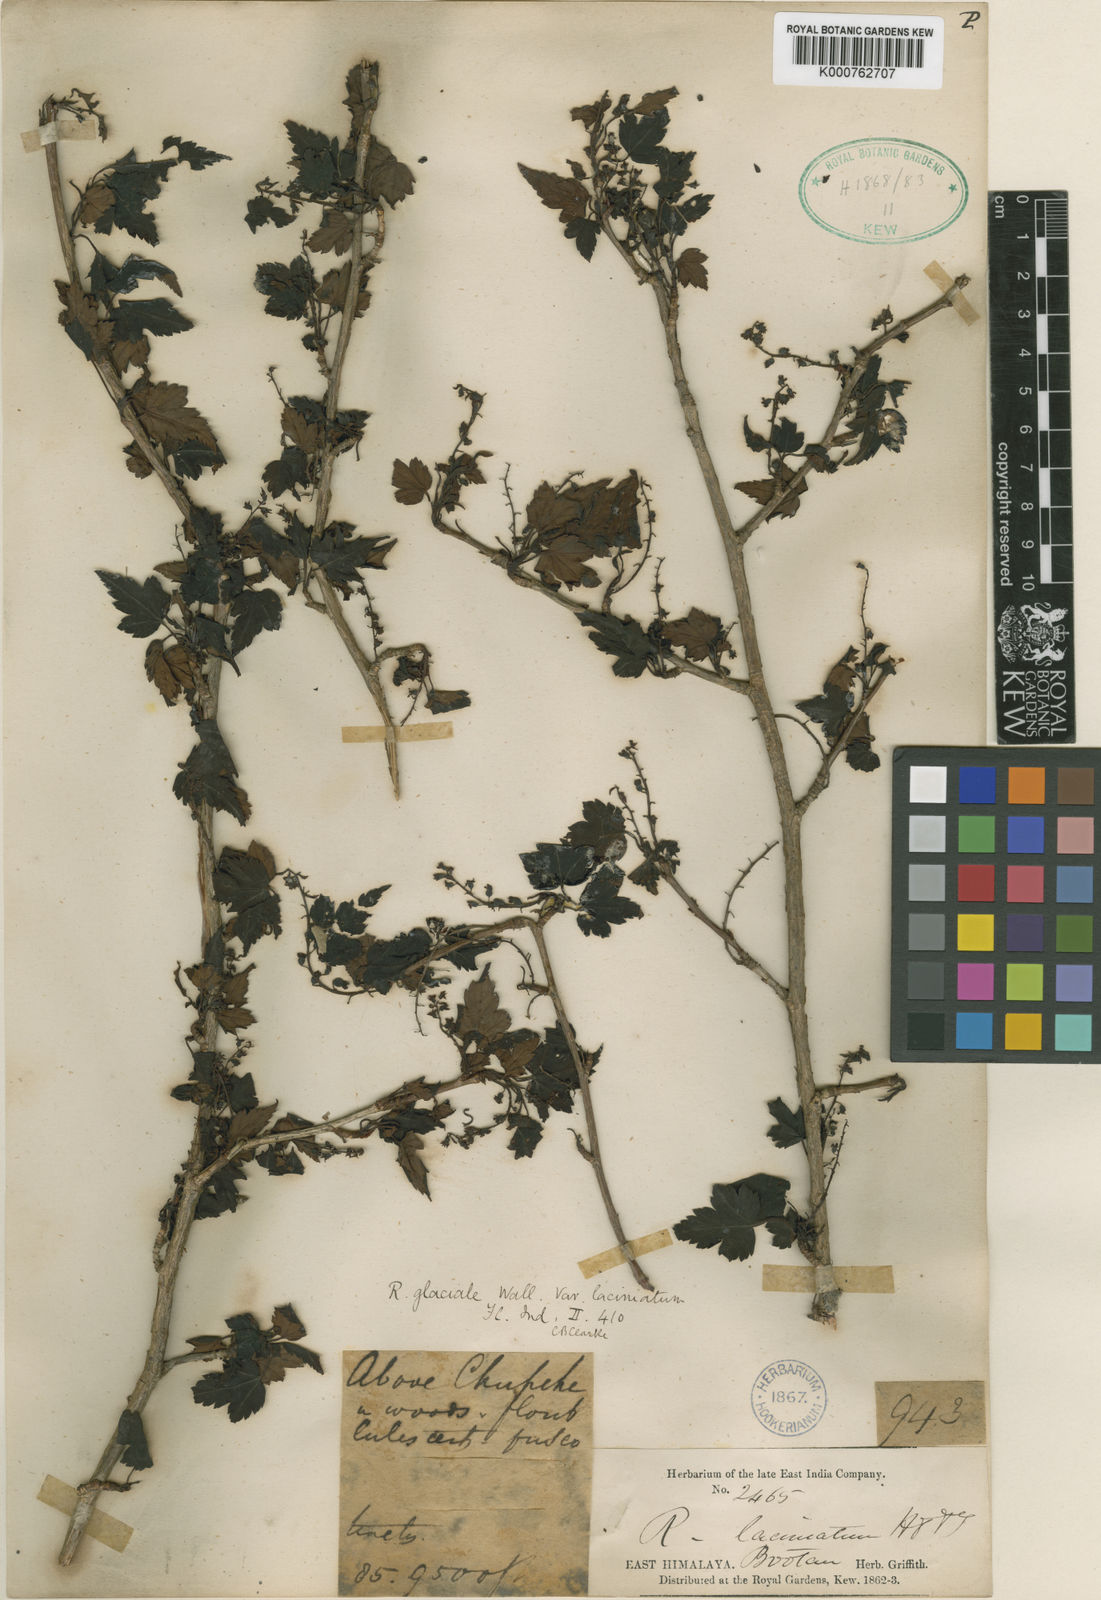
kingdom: Plantae
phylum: Tracheophyta
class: Magnoliopsida
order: Saxifragales
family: Grossulariaceae
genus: Ribes
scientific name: Ribes laciniatum
